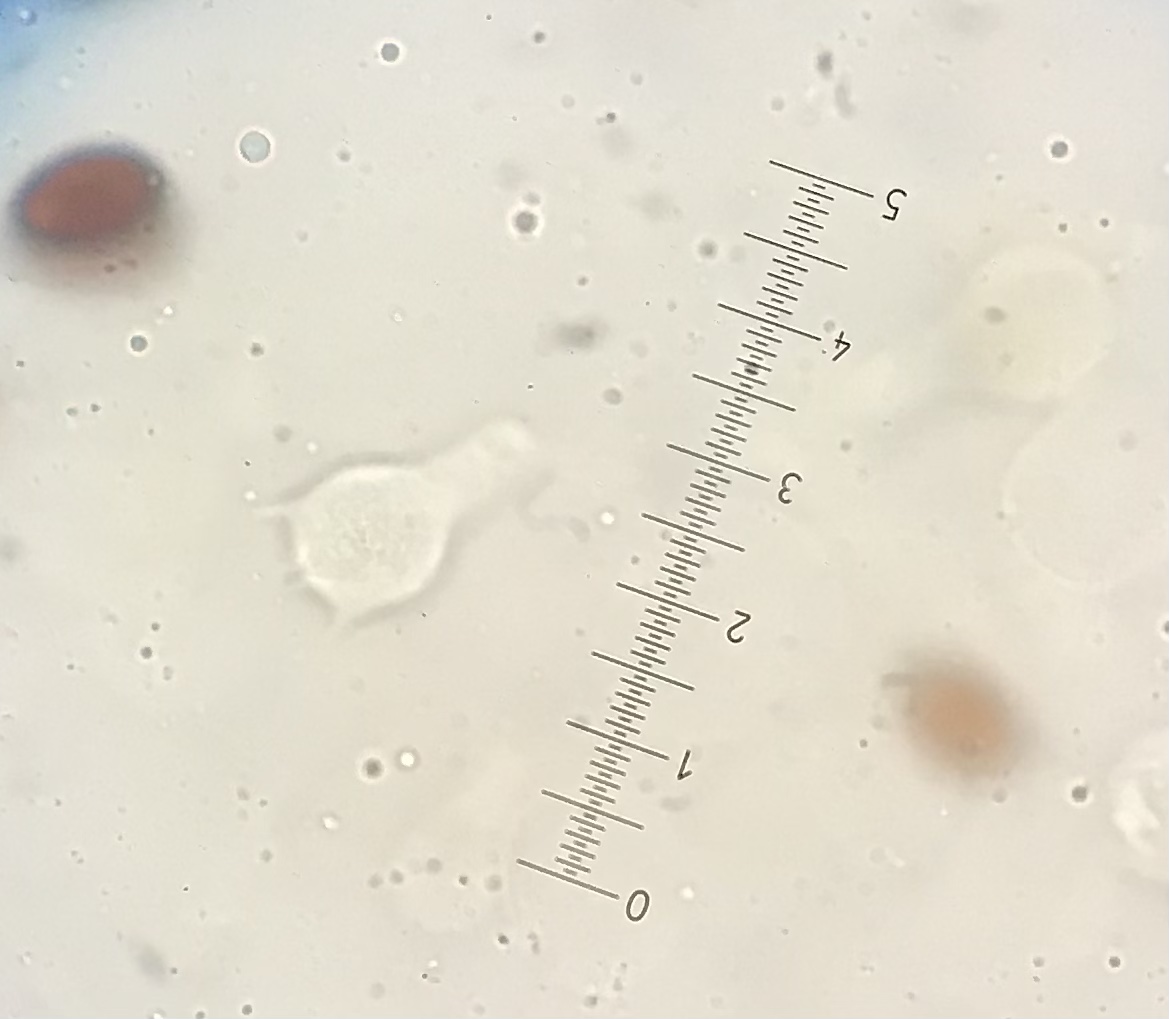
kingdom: Fungi
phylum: Basidiomycota
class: Agaricomycetes
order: Agaricales
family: Bolbitiaceae
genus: Bolbitius
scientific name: Bolbitius
